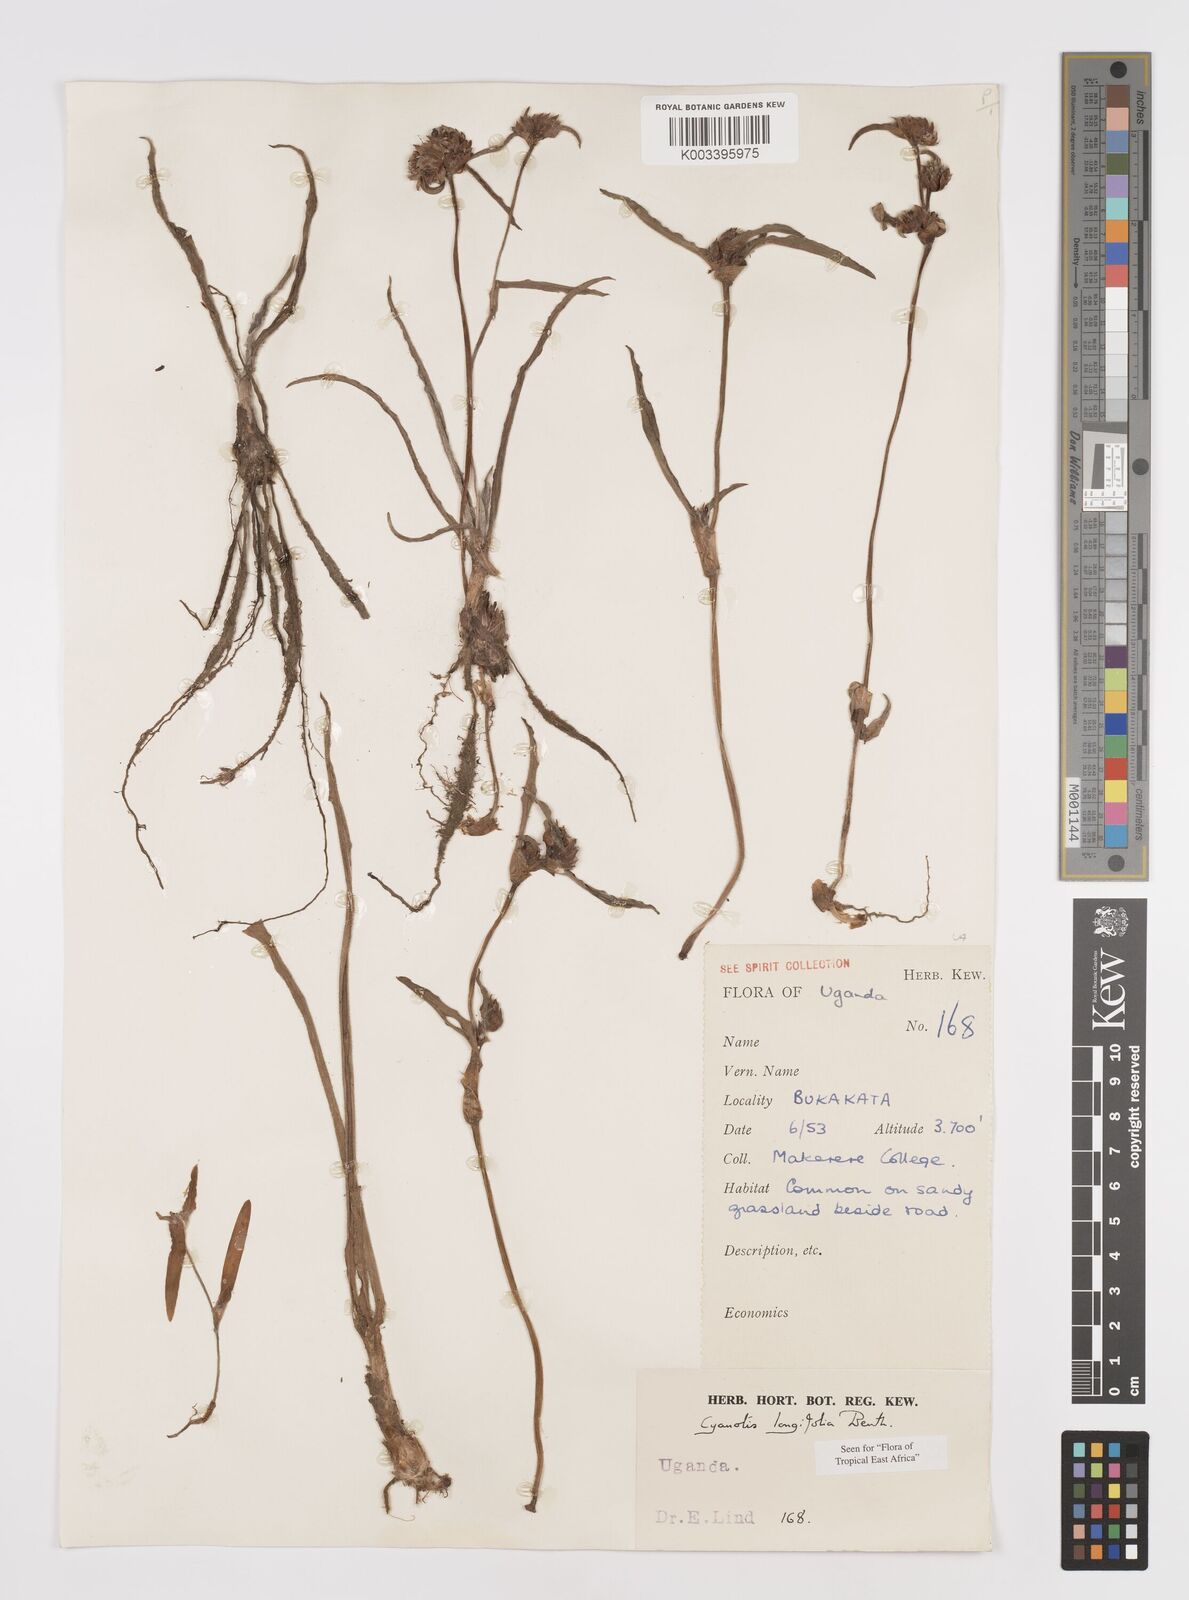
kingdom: Plantae
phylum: Tracheophyta
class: Liliopsida
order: Commelinales
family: Commelinaceae
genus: Cyanotis
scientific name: Cyanotis longifolia
